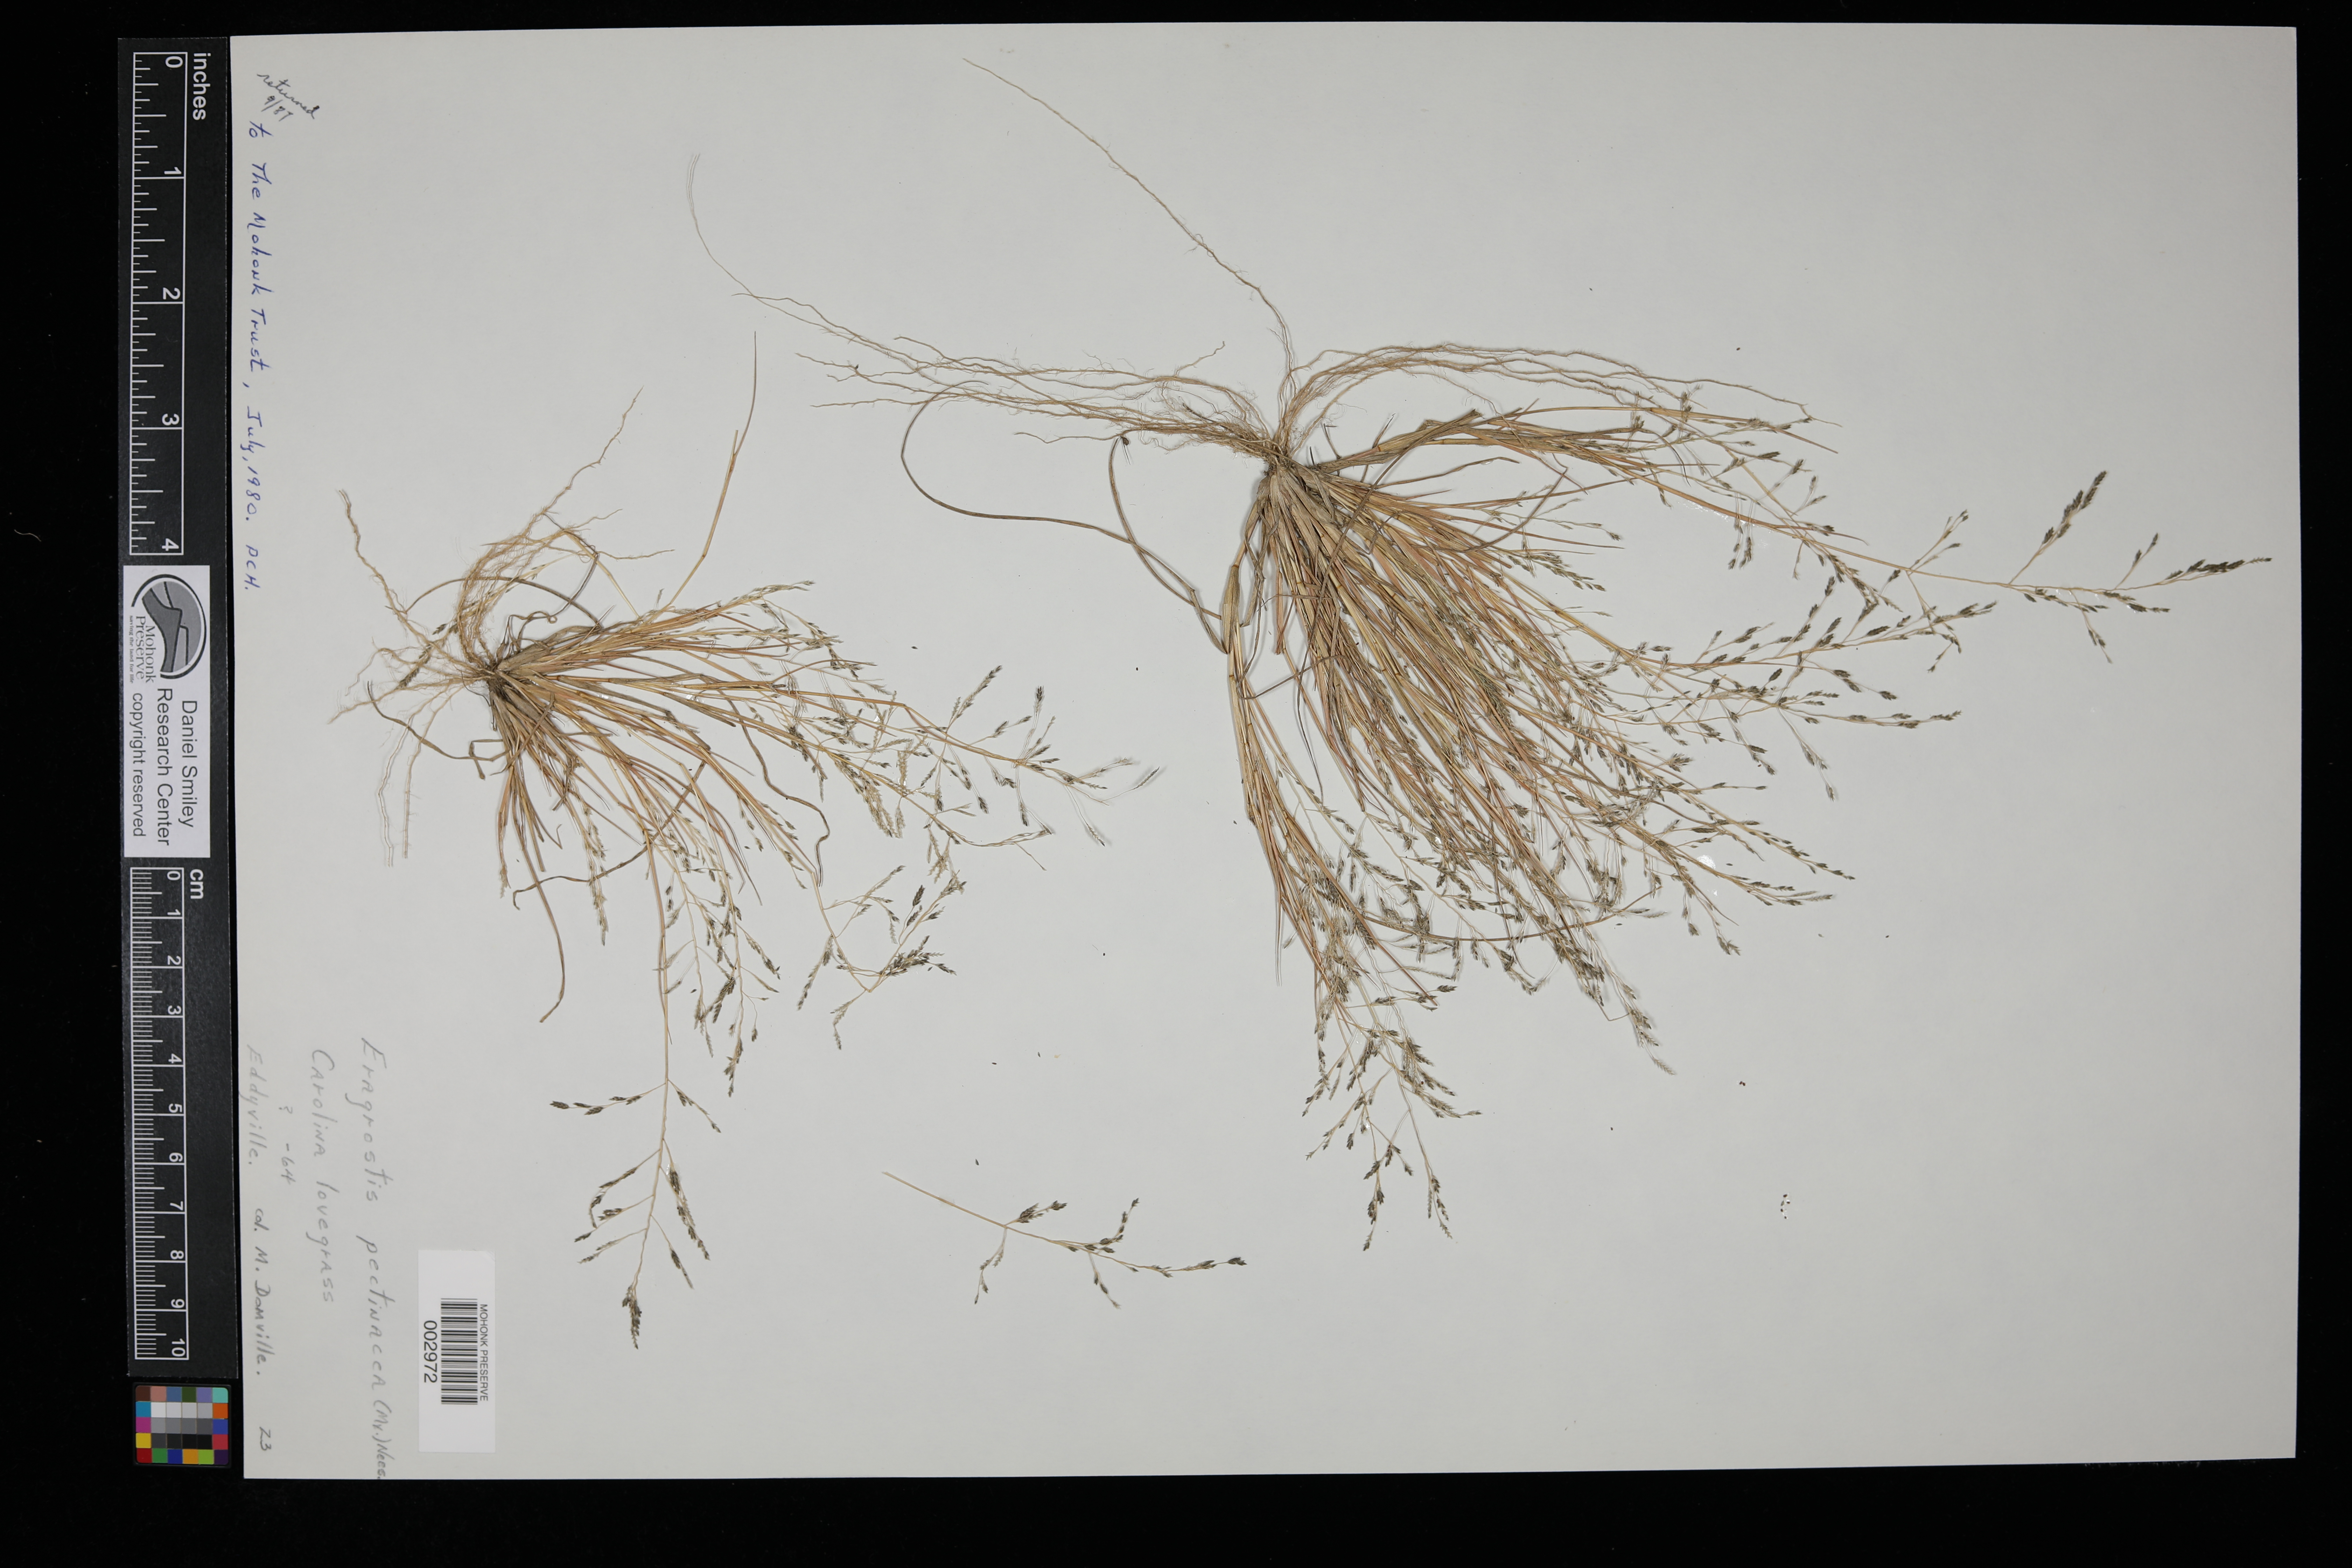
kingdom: Plantae
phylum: Tracheophyta
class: Liliopsida
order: Poales
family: Poaceae
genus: Eragrostis
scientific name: Eragrostis pectinacea
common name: Tufted lovegrass
